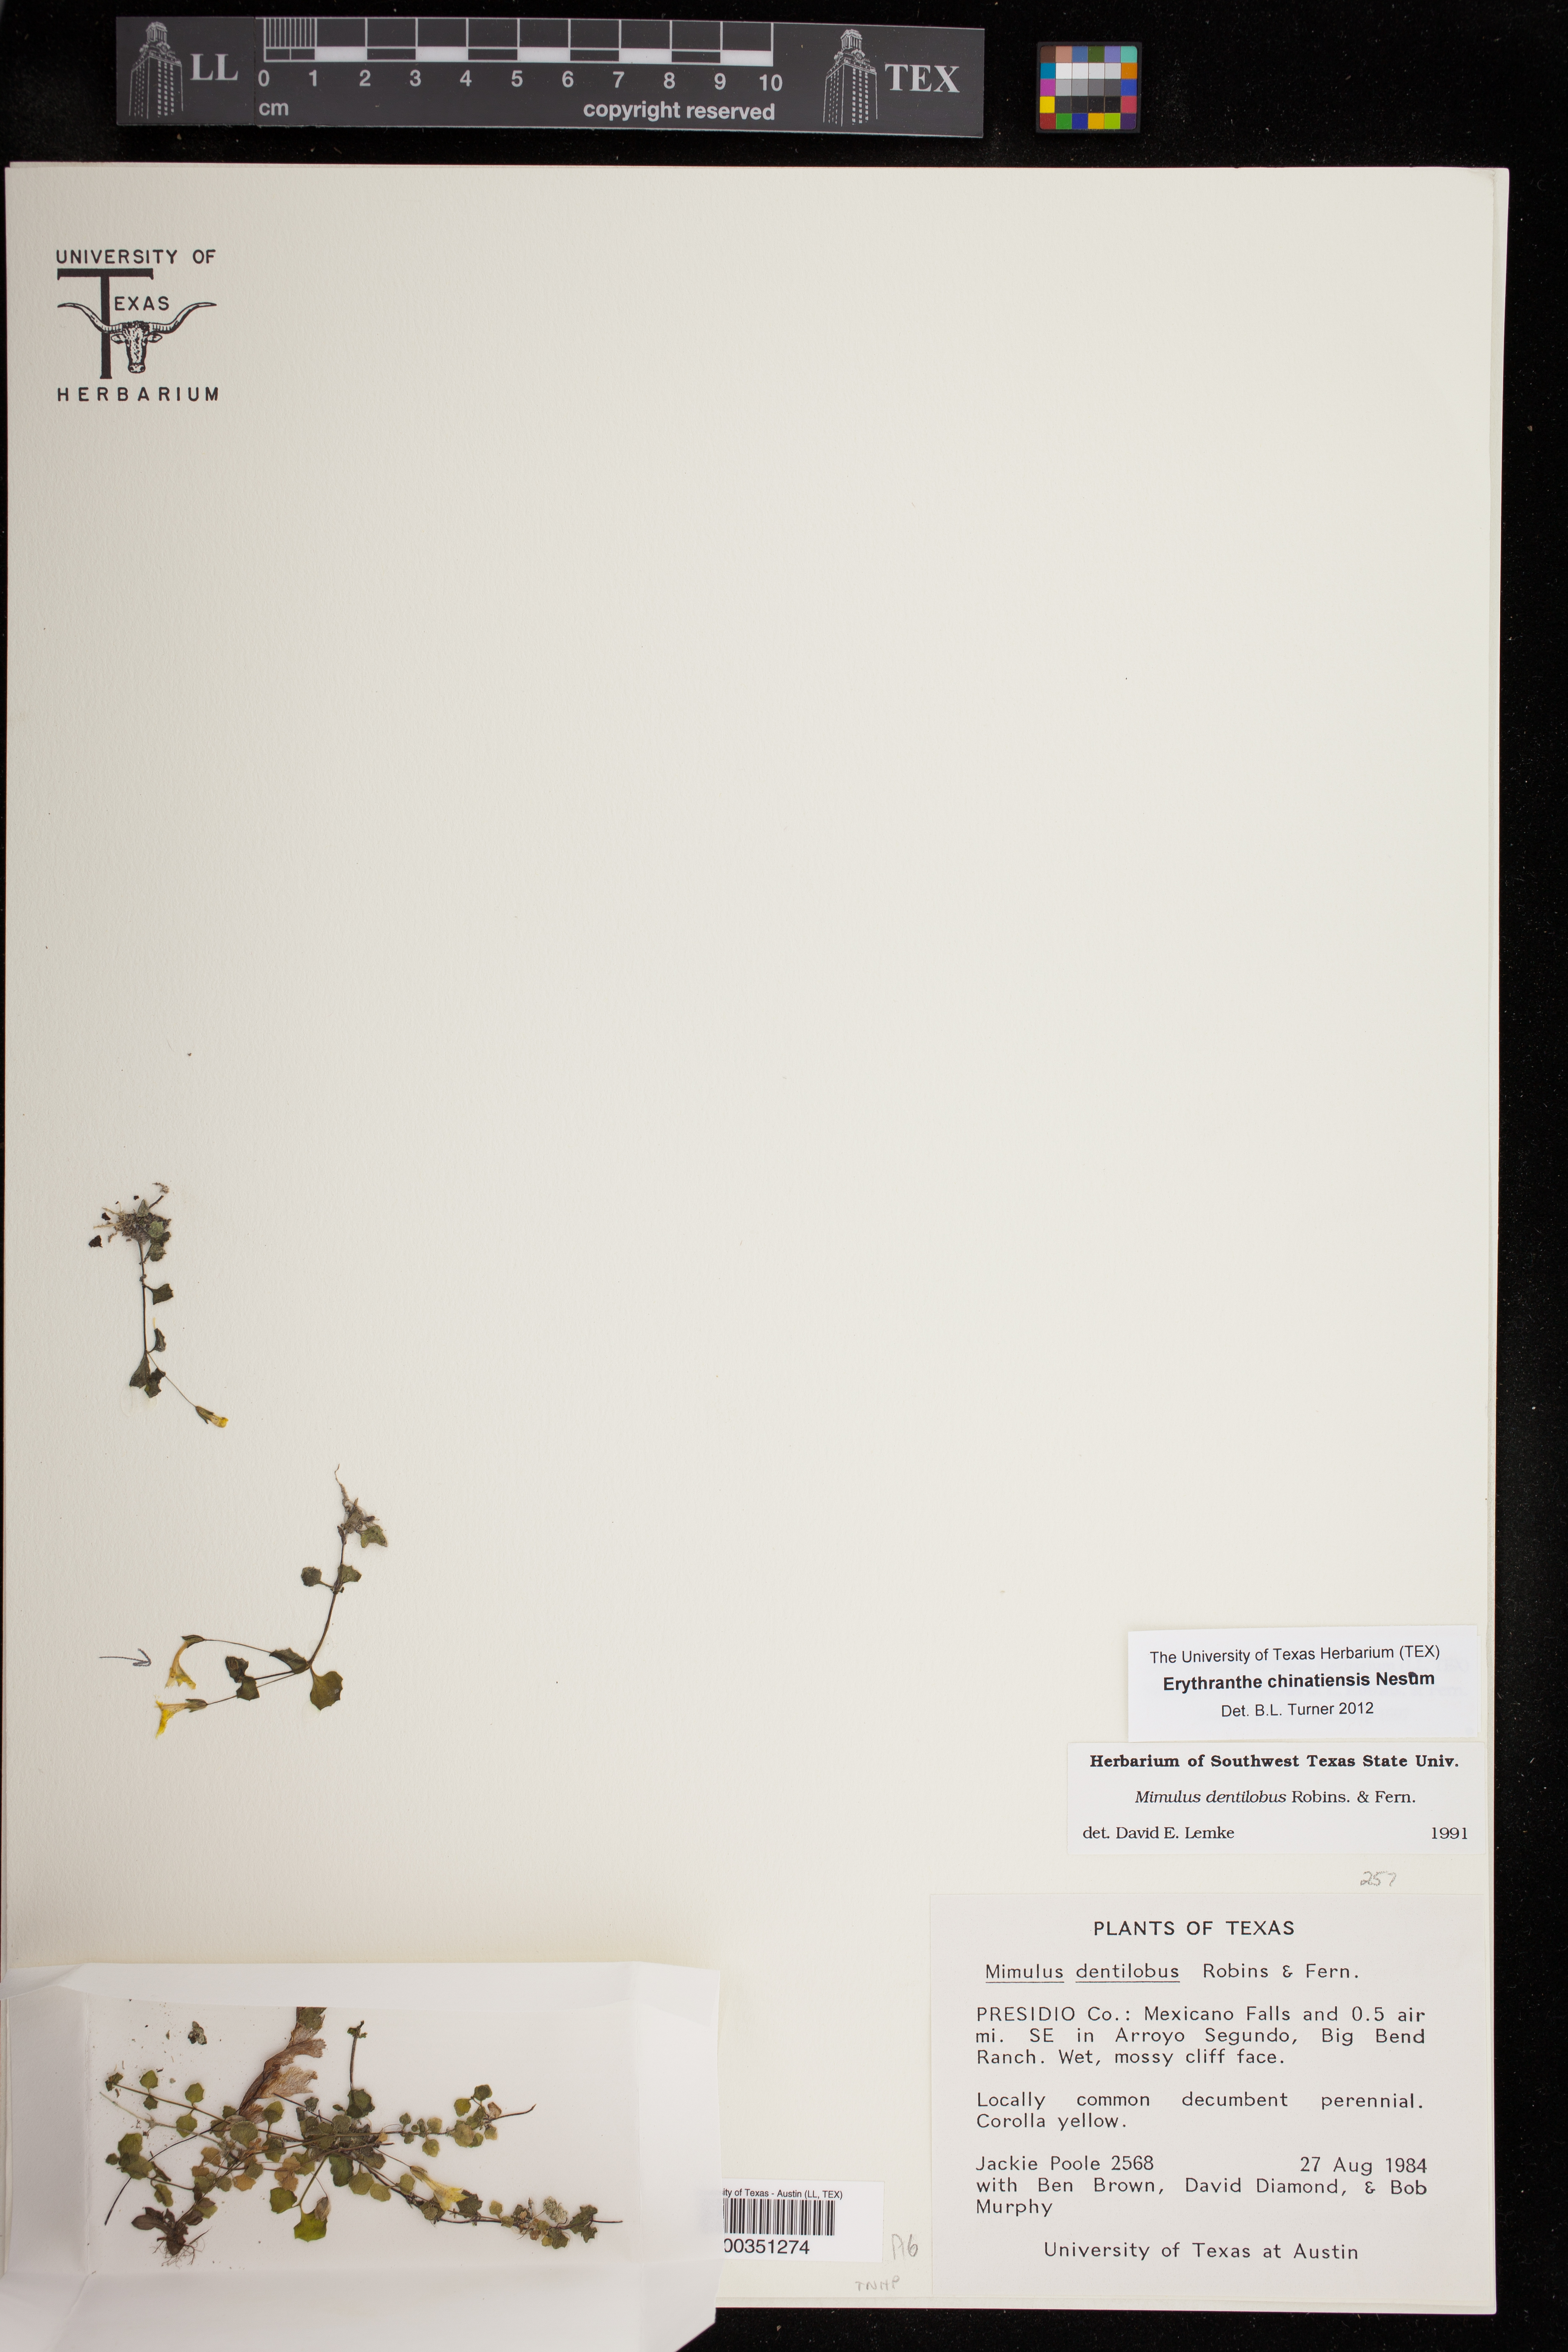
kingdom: Plantae
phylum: Tracheophyta
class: Magnoliopsida
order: Lamiales
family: Phrymaceae
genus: Erythranthe
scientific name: Erythranthe chinatiensis
